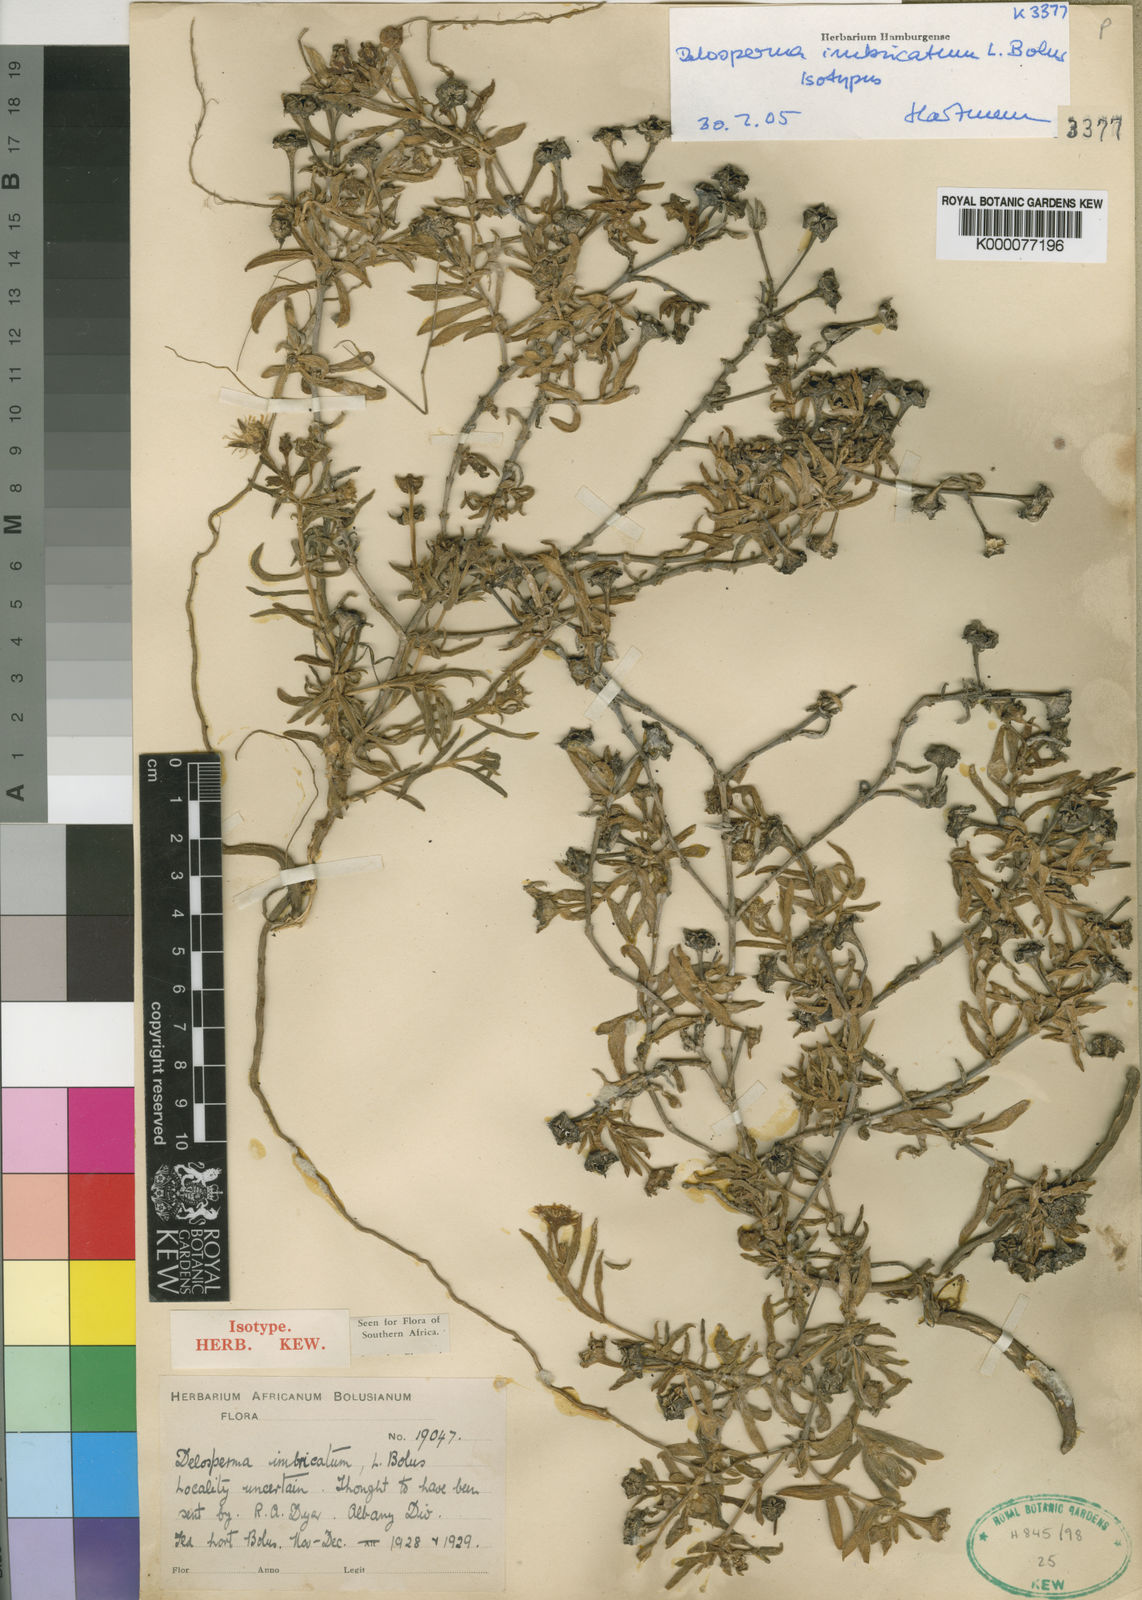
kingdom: Plantae
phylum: Tracheophyta
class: Magnoliopsida
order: Caryophyllales
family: Aizoaceae
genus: Delosperma
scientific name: Delosperma imbricatum
